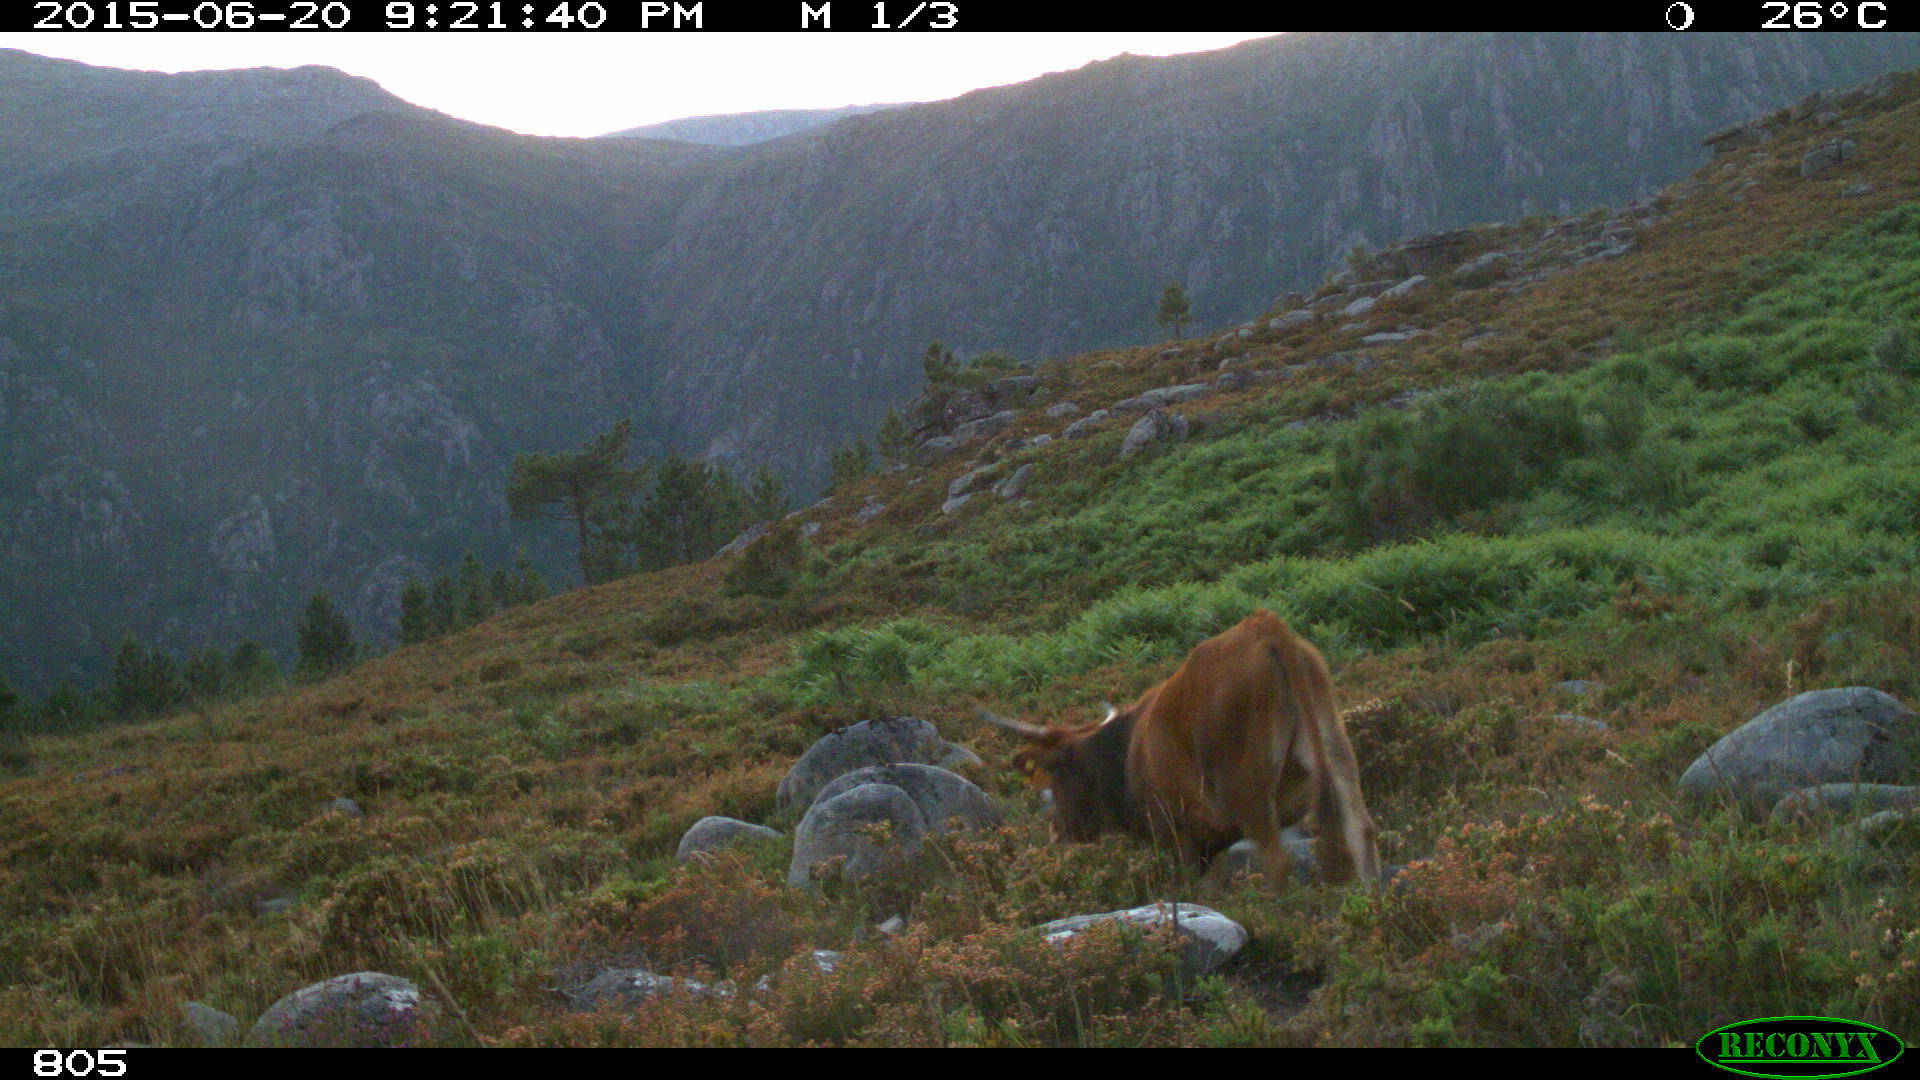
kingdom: Animalia
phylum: Chordata
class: Mammalia
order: Artiodactyla
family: Bovidae
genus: Bos
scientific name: Bos taurus
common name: Domesticated cattle
